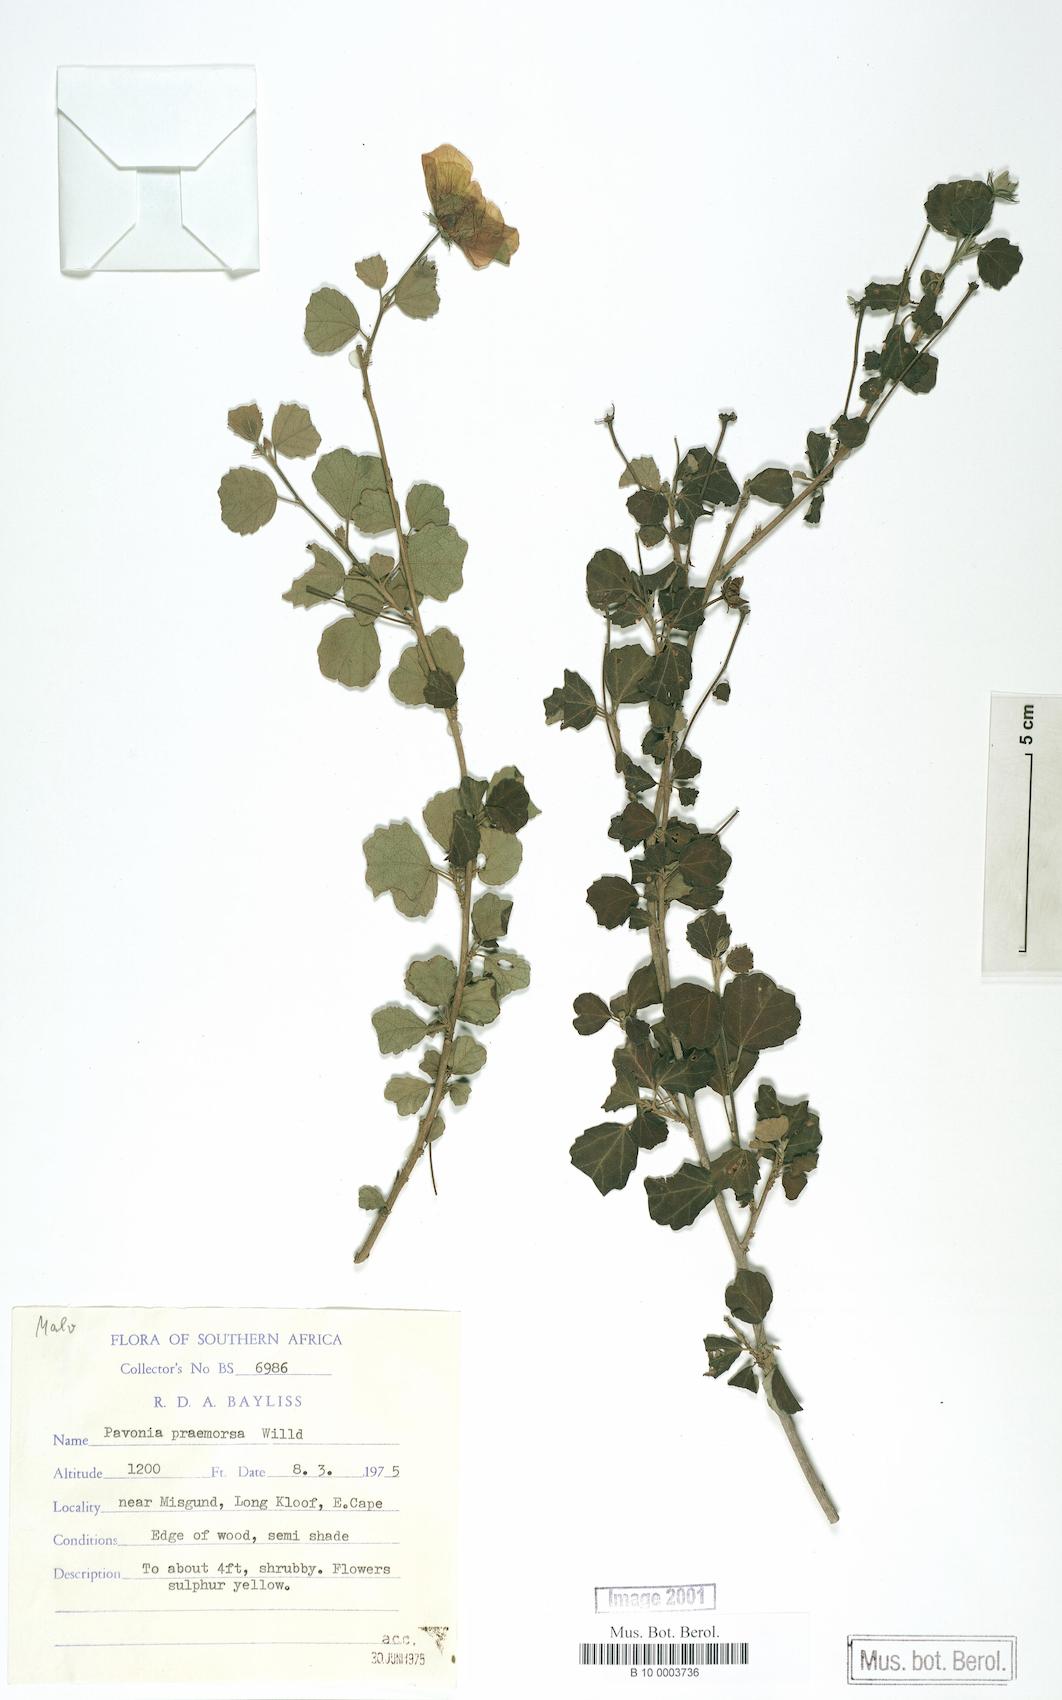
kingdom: Plantae
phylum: Tracheophyta
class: Magnoliopsida
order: Malvales
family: Malvaceae
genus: Pavonia
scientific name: Pavonia praemorsa
